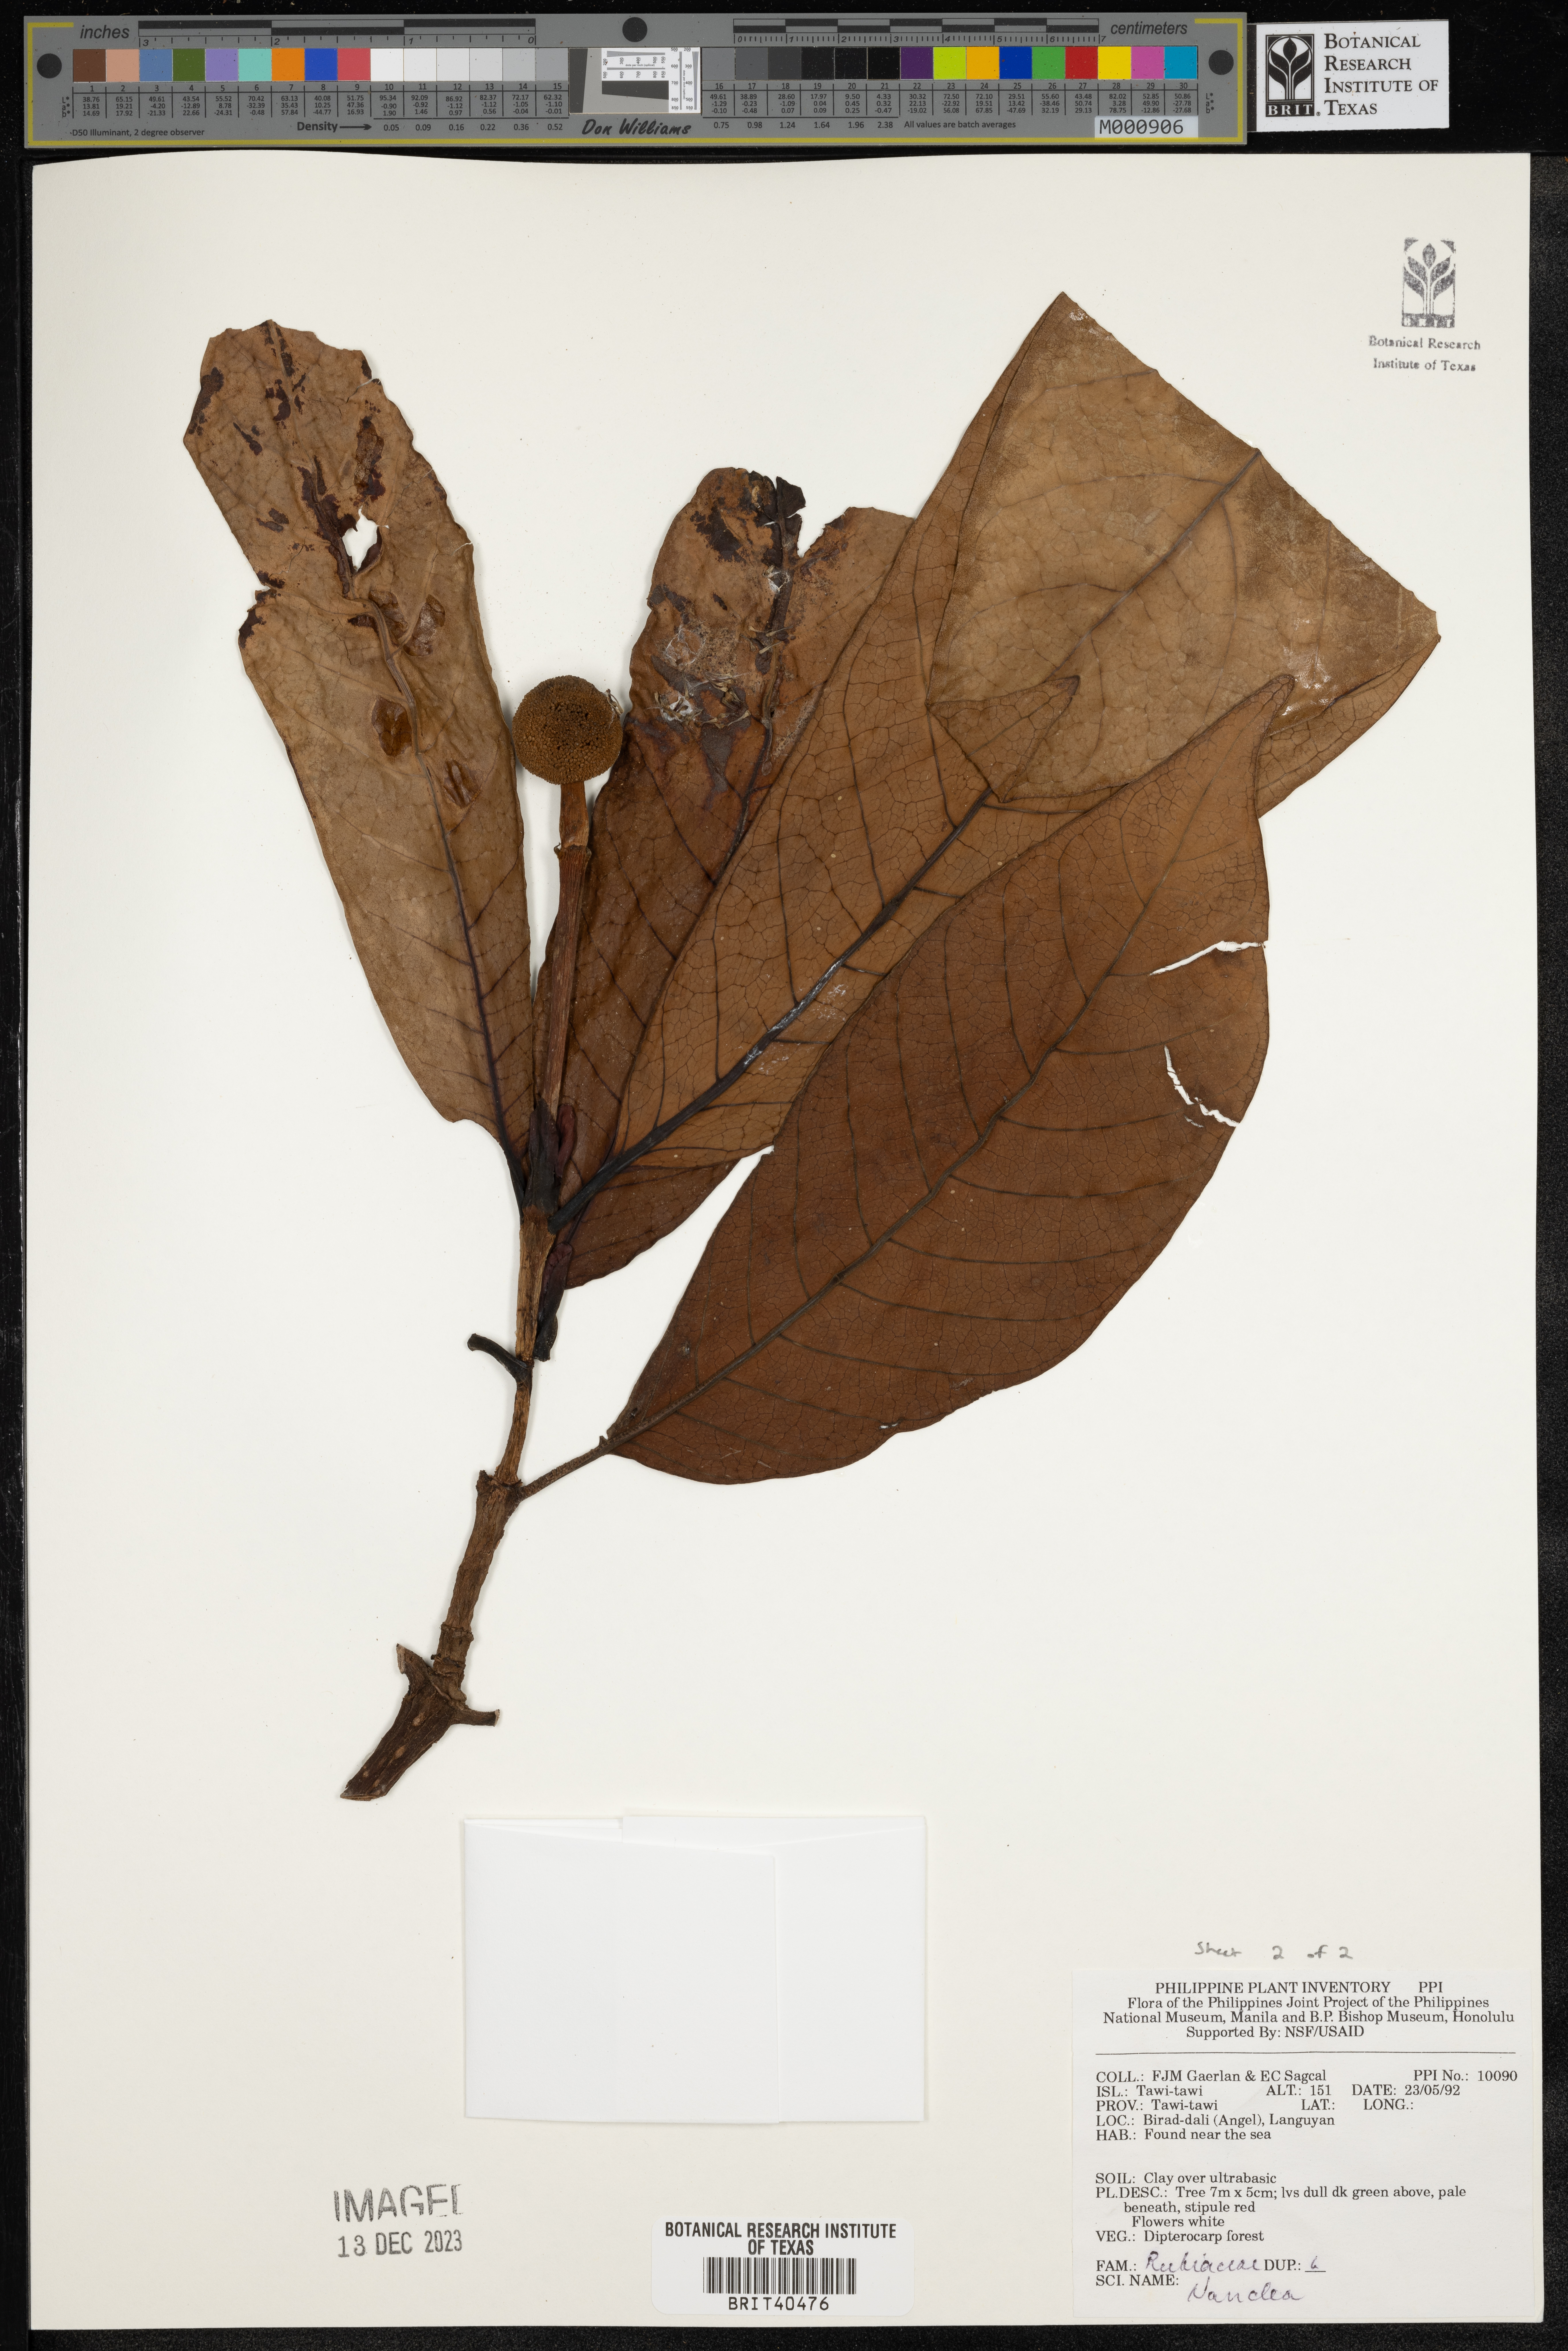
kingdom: Plantae
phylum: Tracheophyta
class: Magnoliopsida
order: Gentianales
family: Rubiaceae
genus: Nauclea
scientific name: Nauclea
